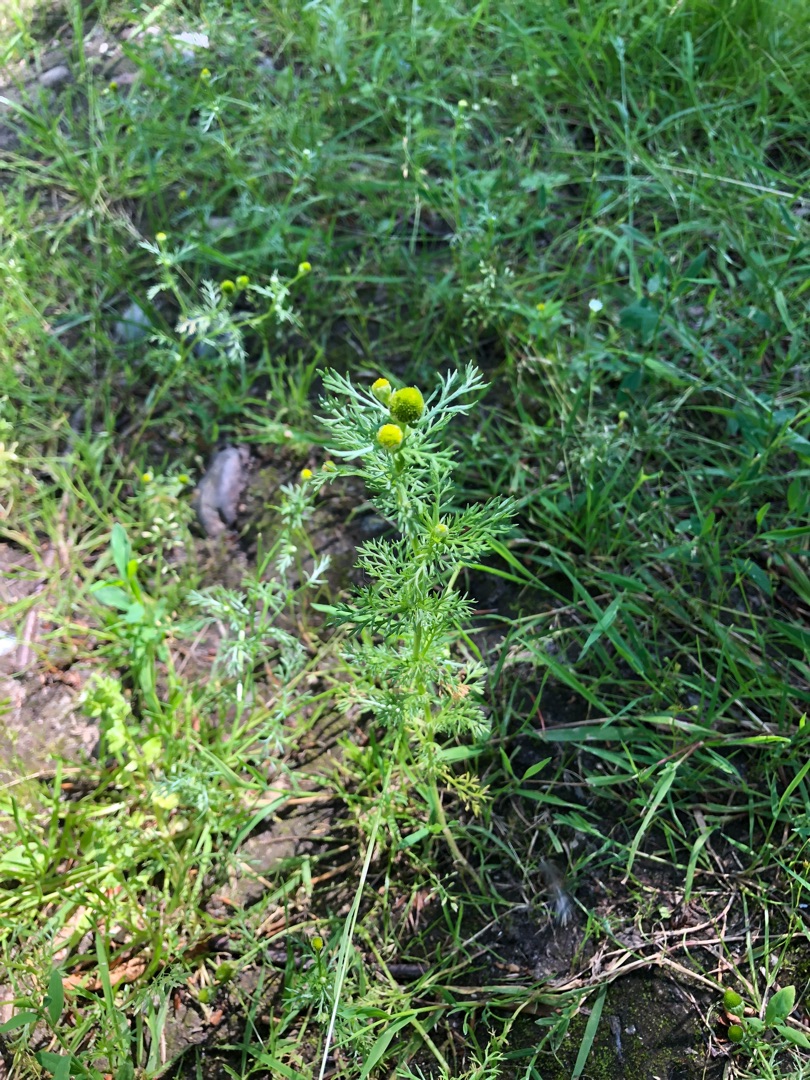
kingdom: Plantae
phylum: Tracheophyta
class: Magnoliopsida
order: Asterales
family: Asteraceae
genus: Matricaria
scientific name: Matricaria discoidea
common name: Skive-kamille
